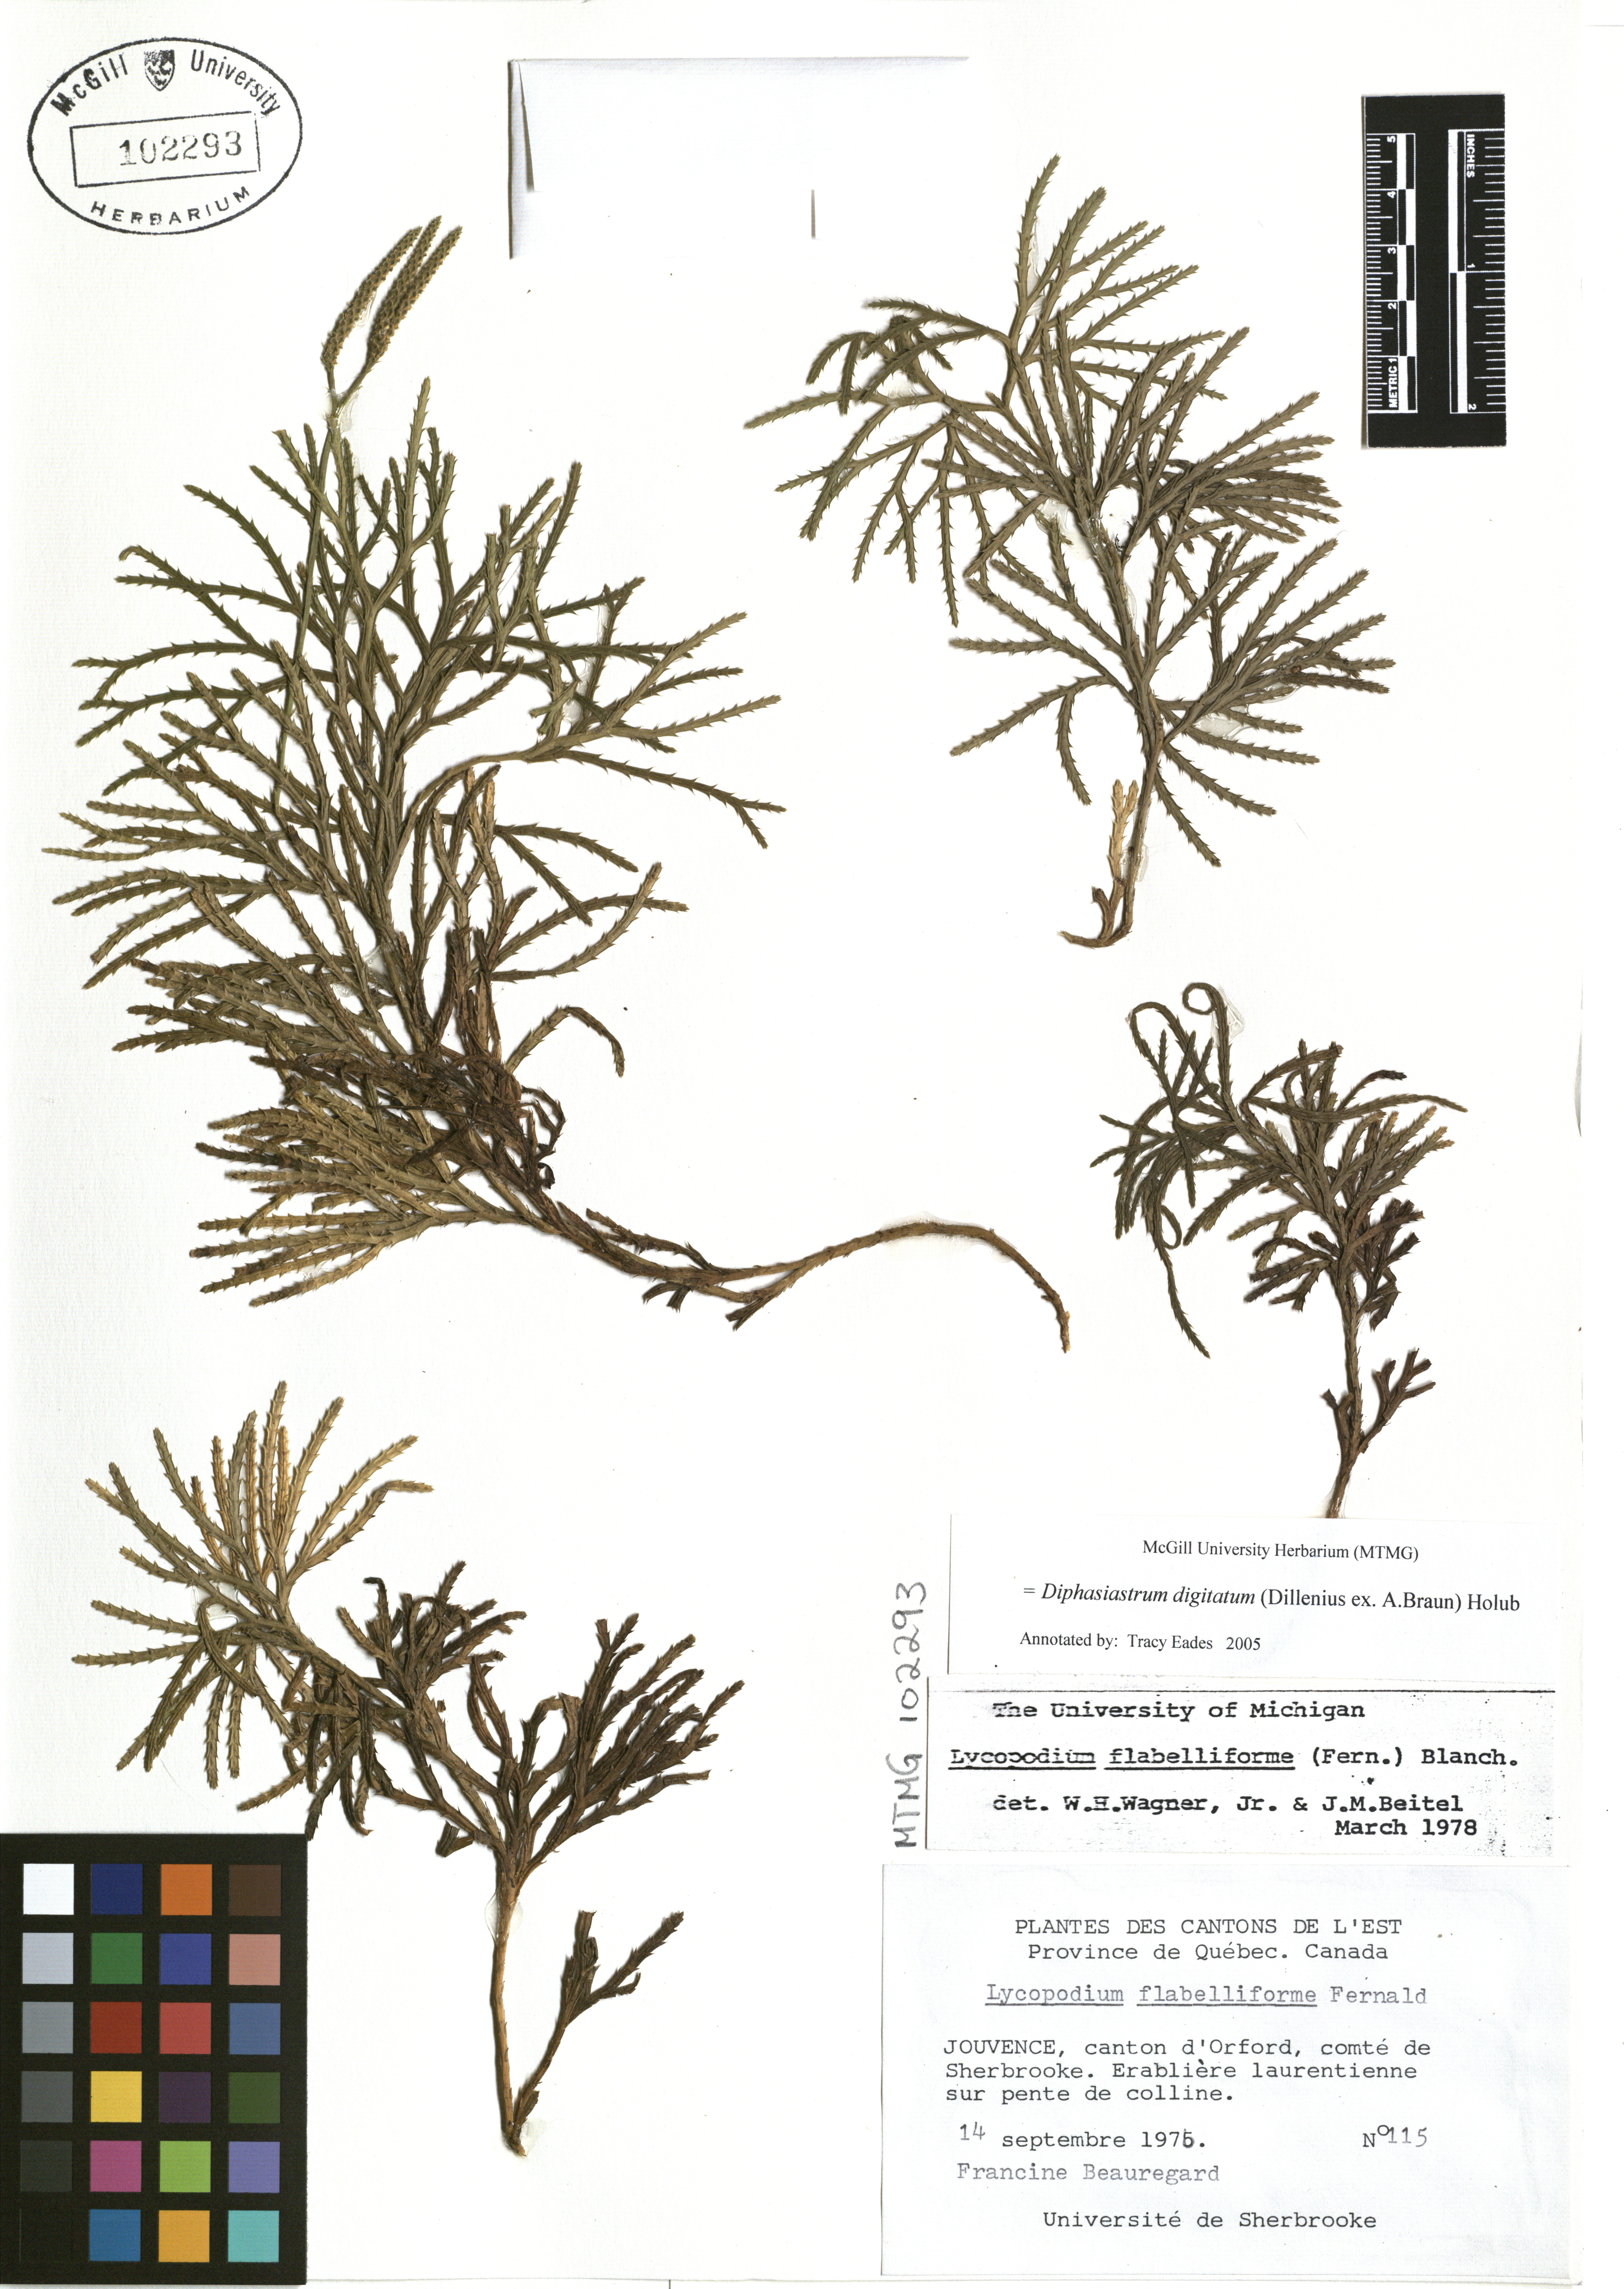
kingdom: Plantae
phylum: Tracheophyta
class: Lycopodiopsida
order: Lycopodiales
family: Lycopodiaceae
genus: Diphasiastrum
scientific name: Diphasiastrum digitatum
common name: Southern running-pine
